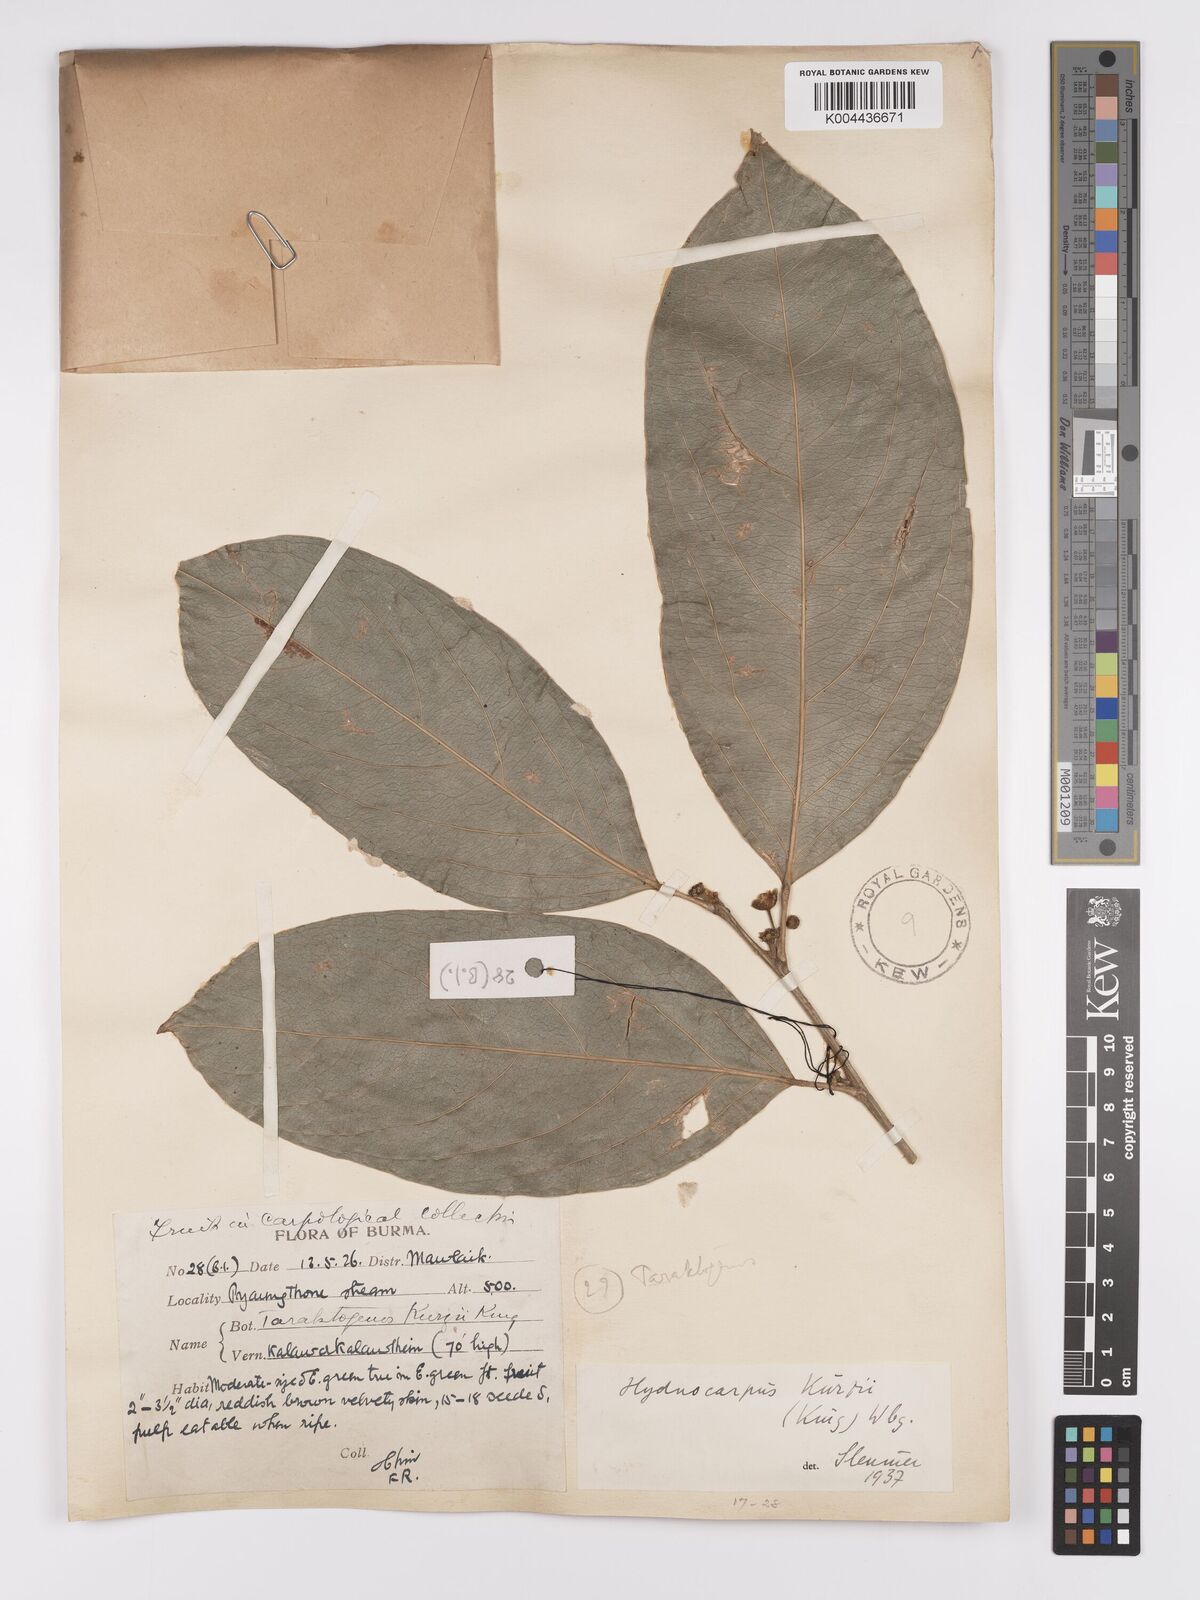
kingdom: Plantae
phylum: Tracheophyta
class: Magnoliopsida
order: Malpighiales
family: Achariaceae
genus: Hydnocarpus
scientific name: Hydnocarpus kurzii
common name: Chaulmoogra
